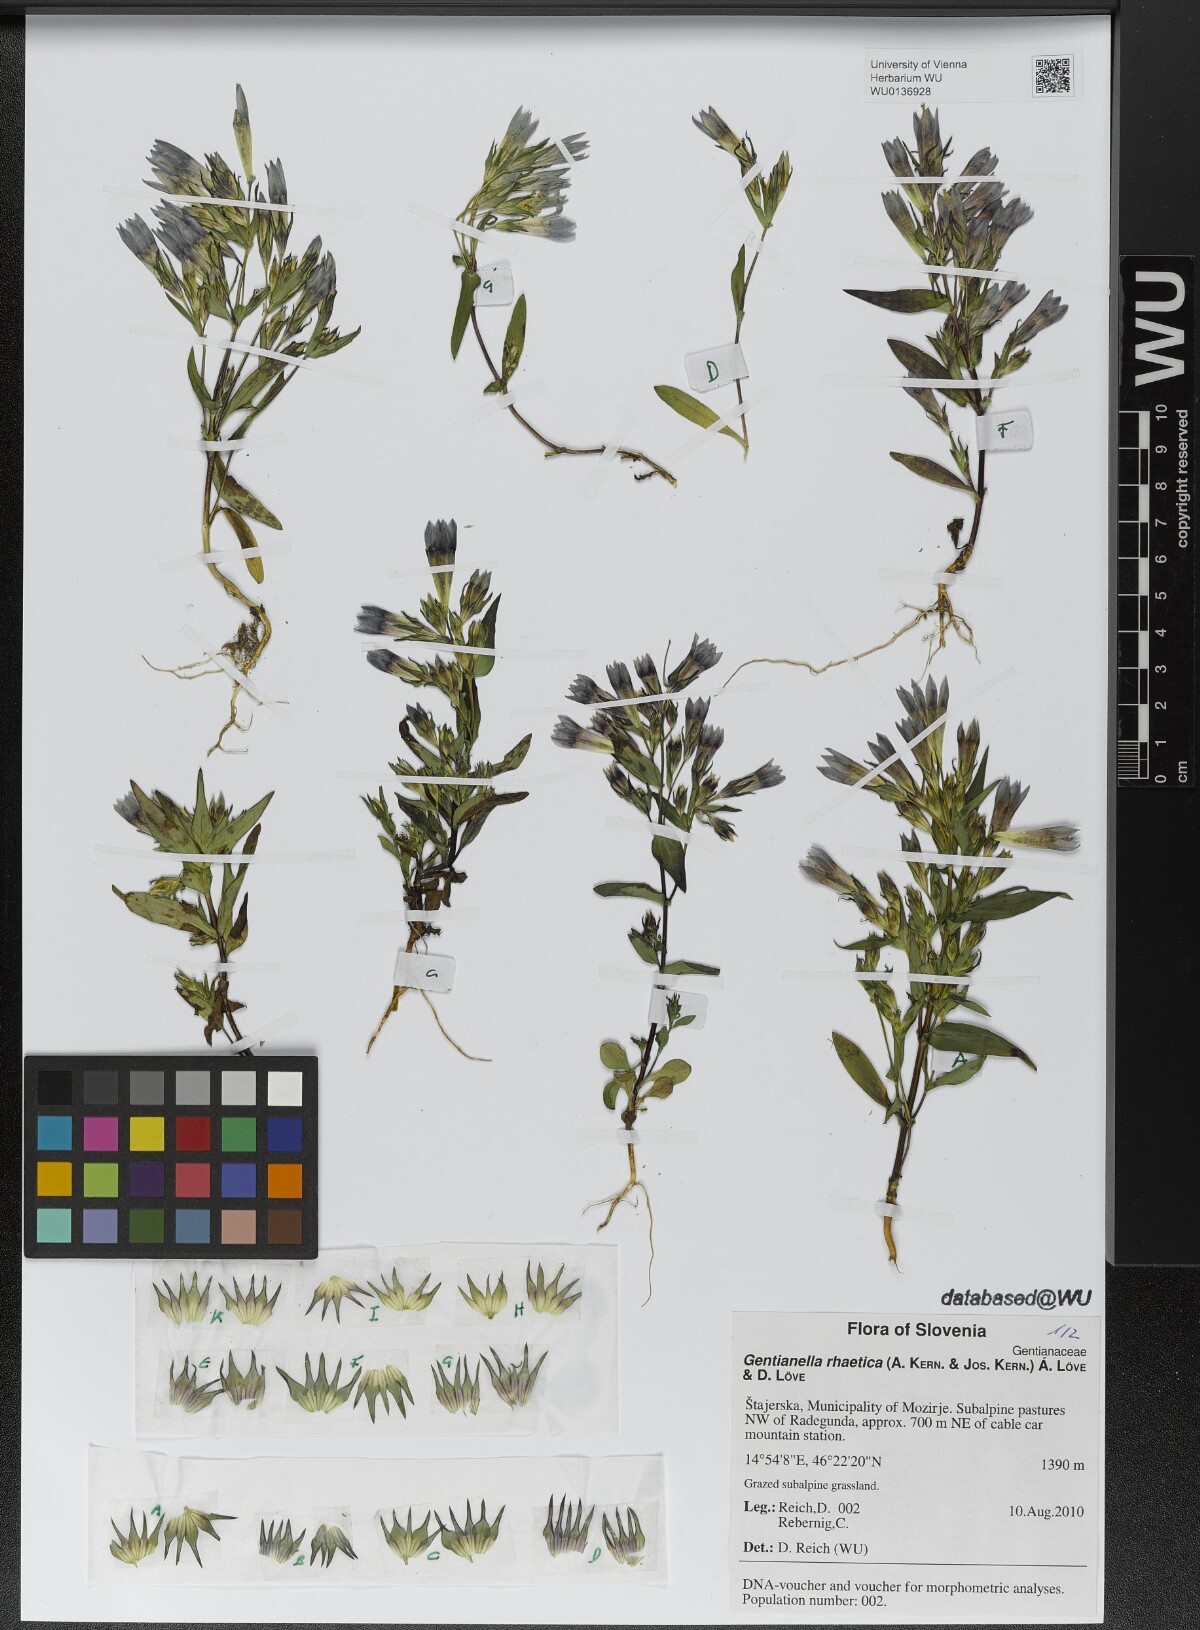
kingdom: Plantae
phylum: Tracheophyta
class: Magnoliopsida
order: Gentianales
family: Gentianaceae
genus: Gentianella
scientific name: Gentianella rhaetica
